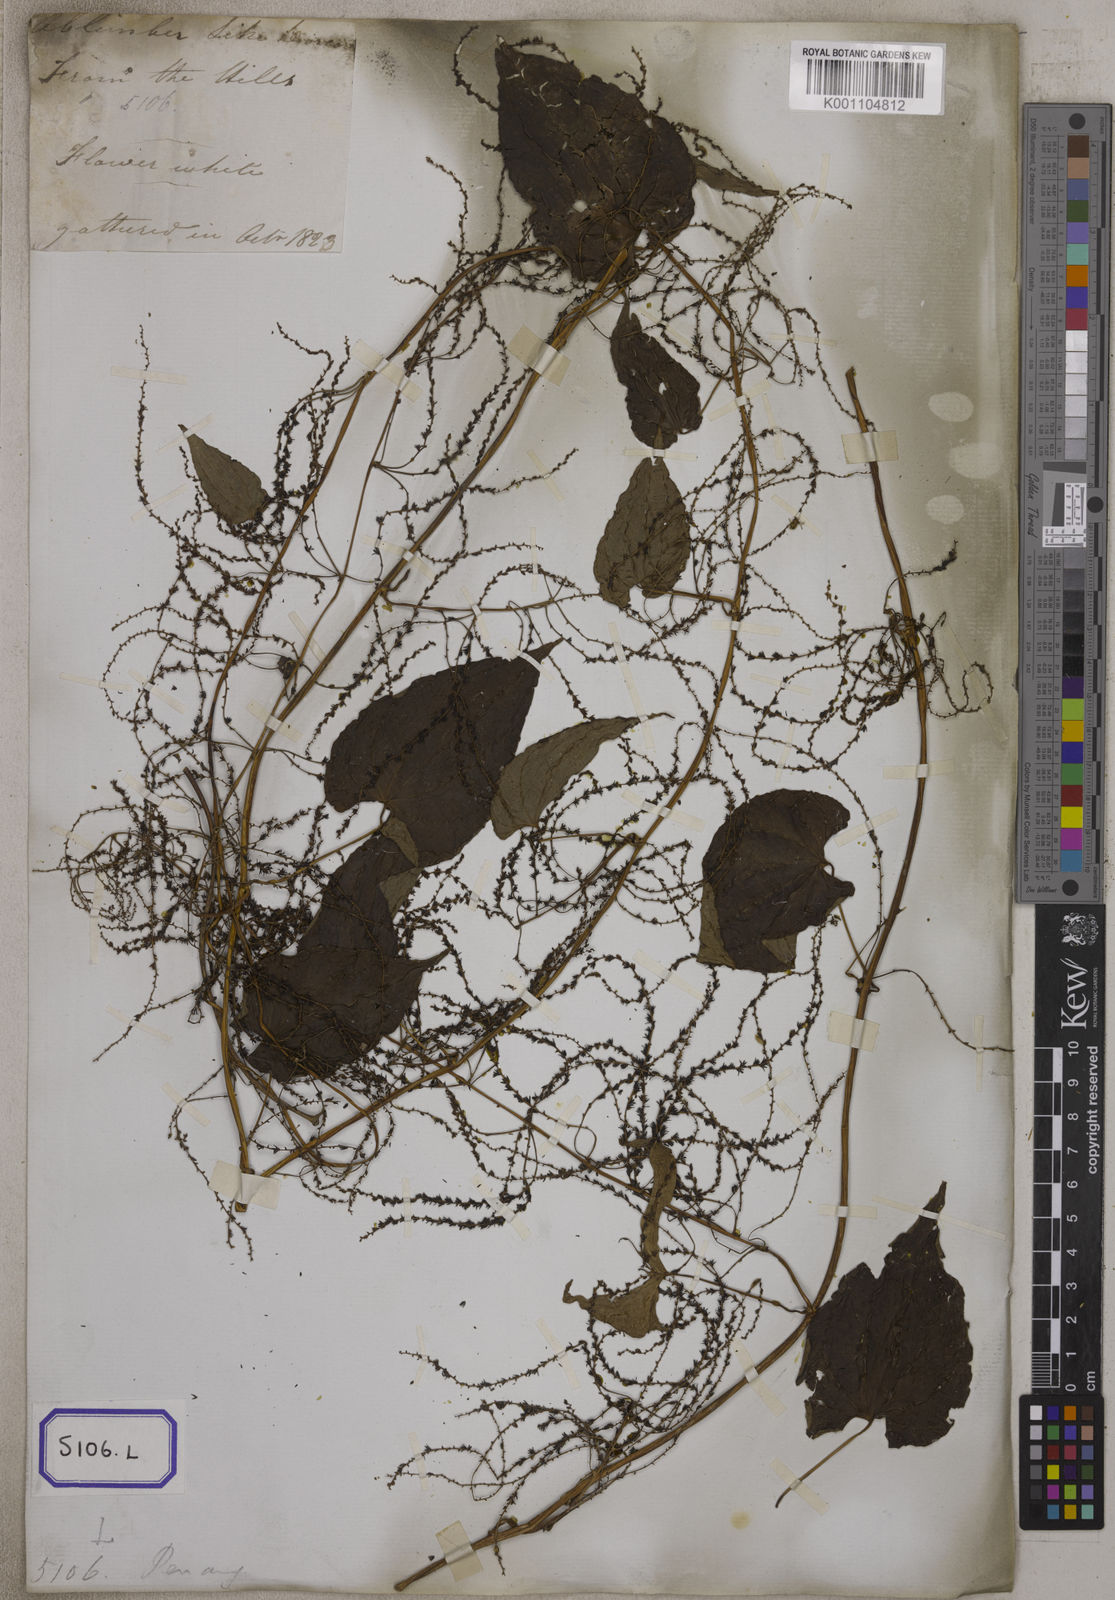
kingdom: Plantae
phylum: Tracheophyta
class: Liliopsida
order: Dioscoreales
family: Dioscoreaceae
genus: Dioscorea
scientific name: Dioscorea
